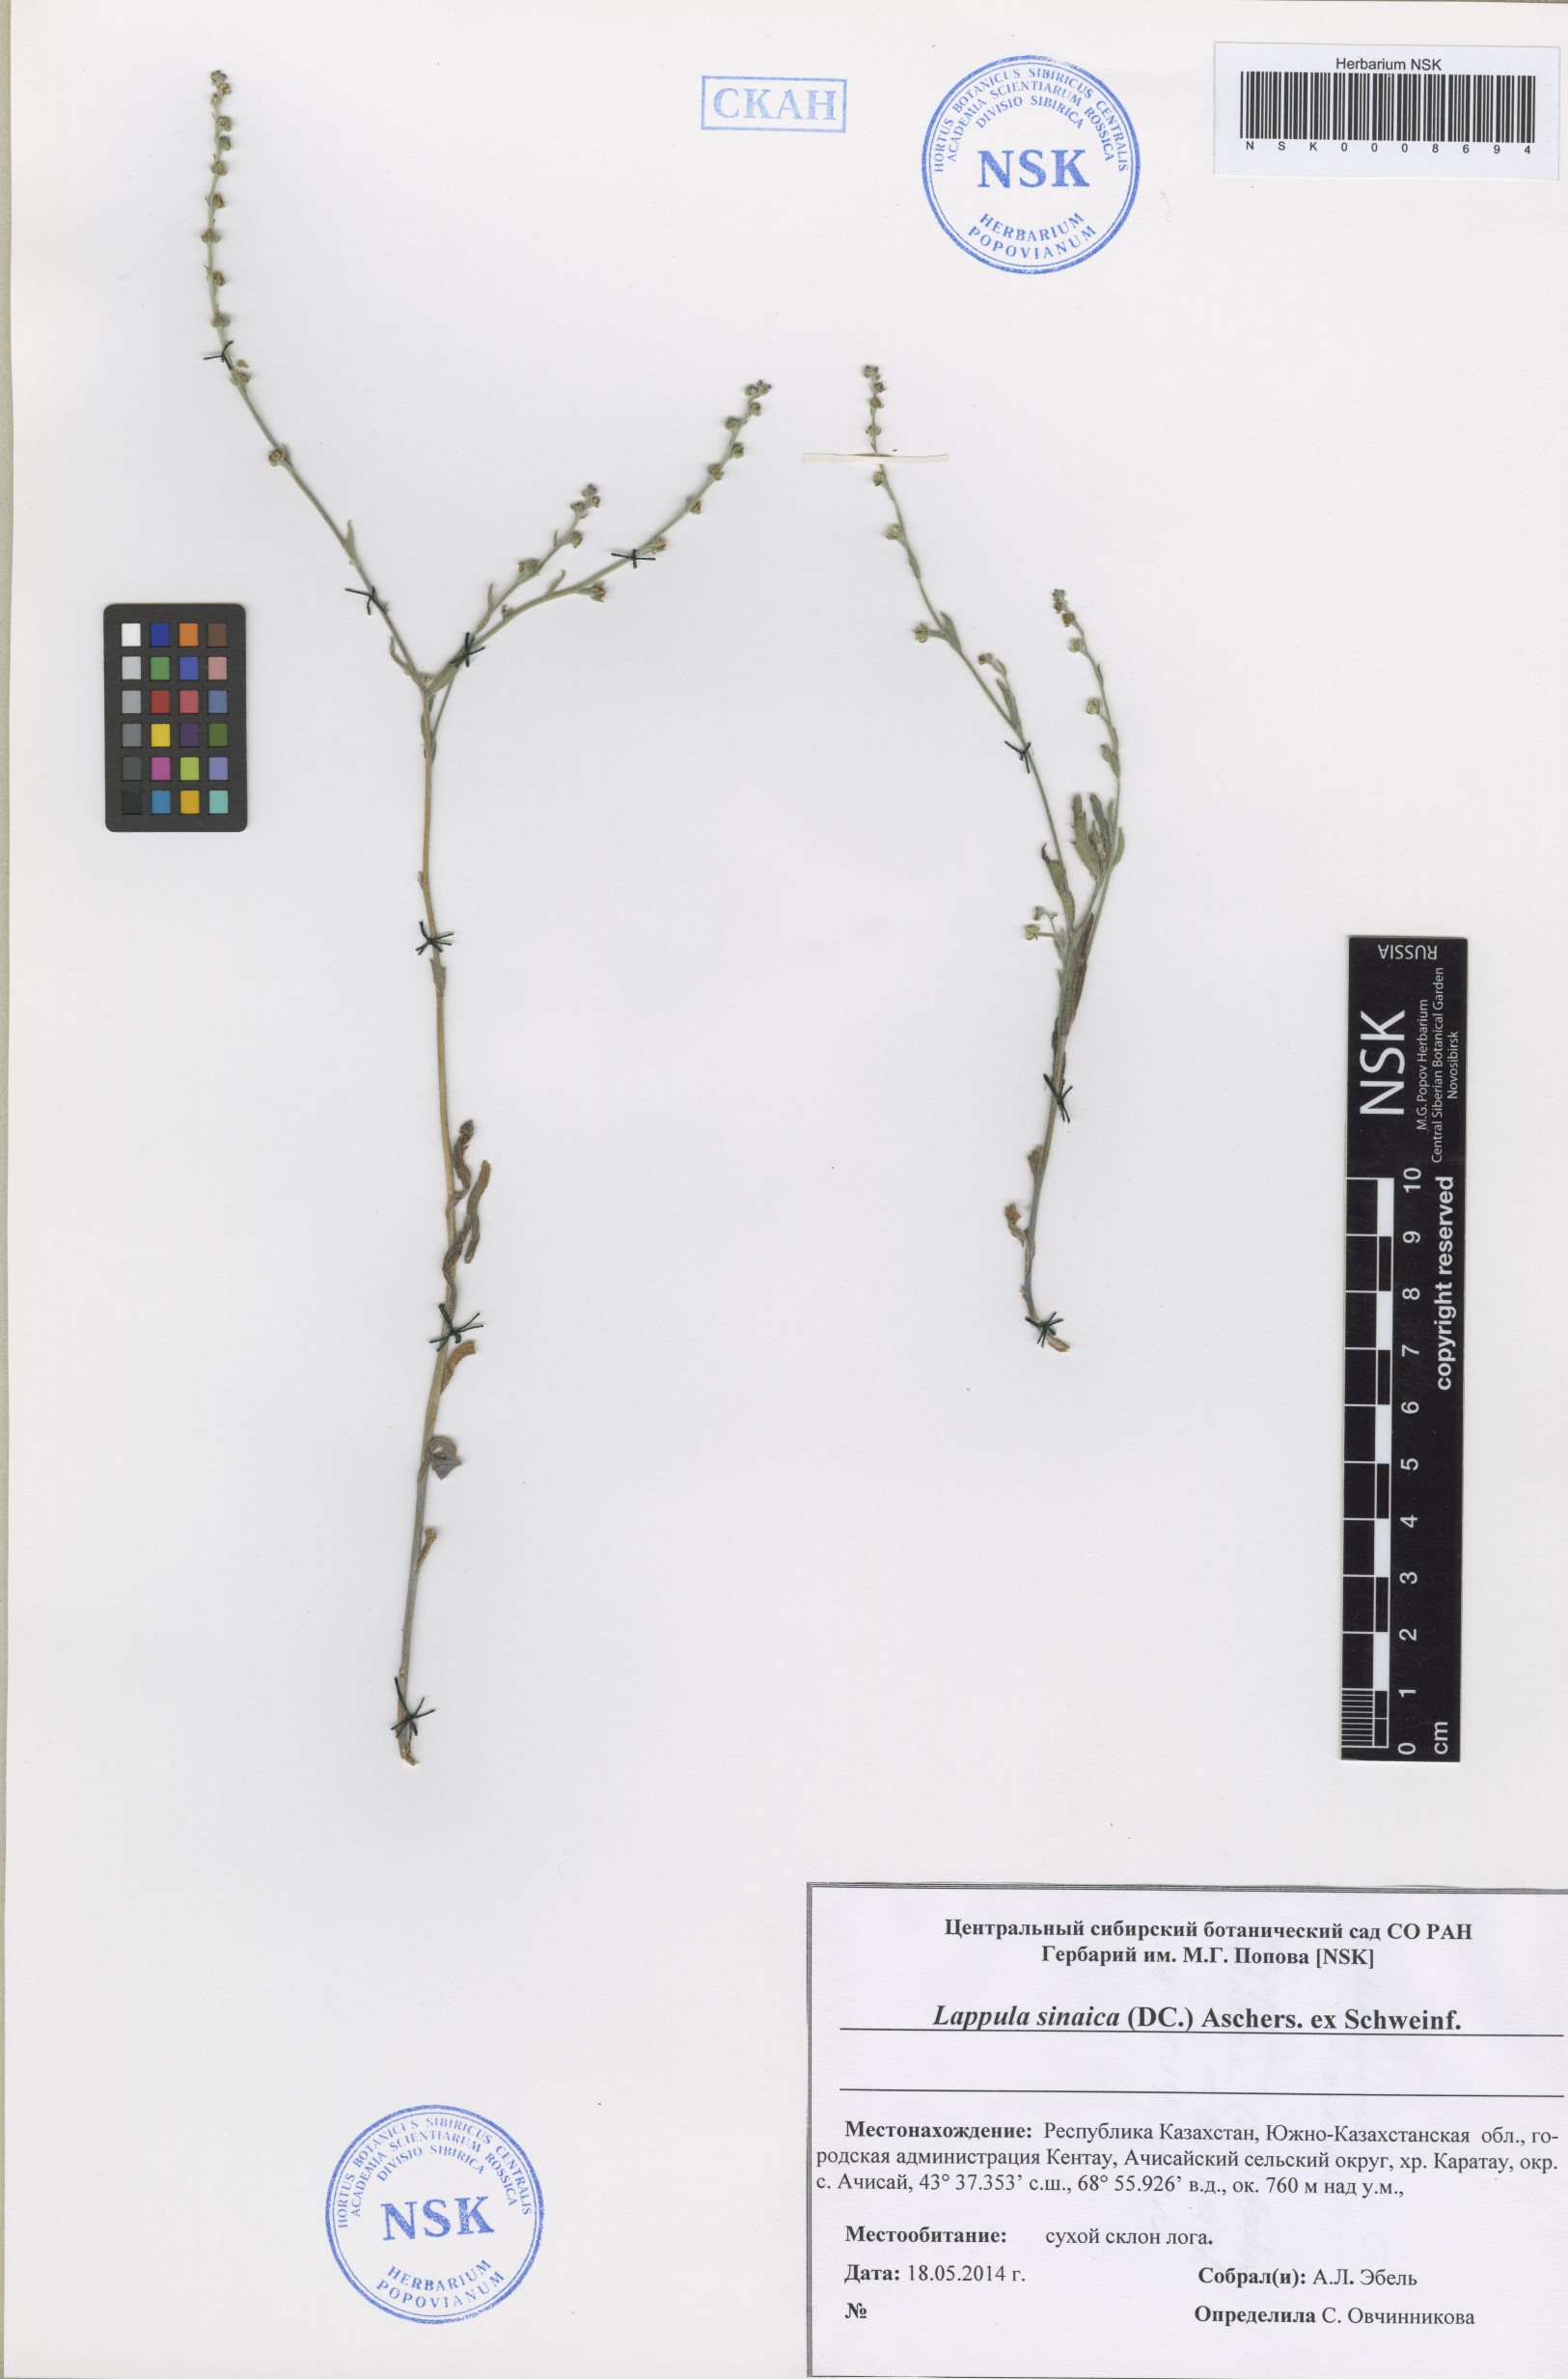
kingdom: Plantae
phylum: Tracheophyta
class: Magnoliopsida
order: Boraginales
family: Boraginaceae
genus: Pseudolappula
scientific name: Pseudolappula sinaica
